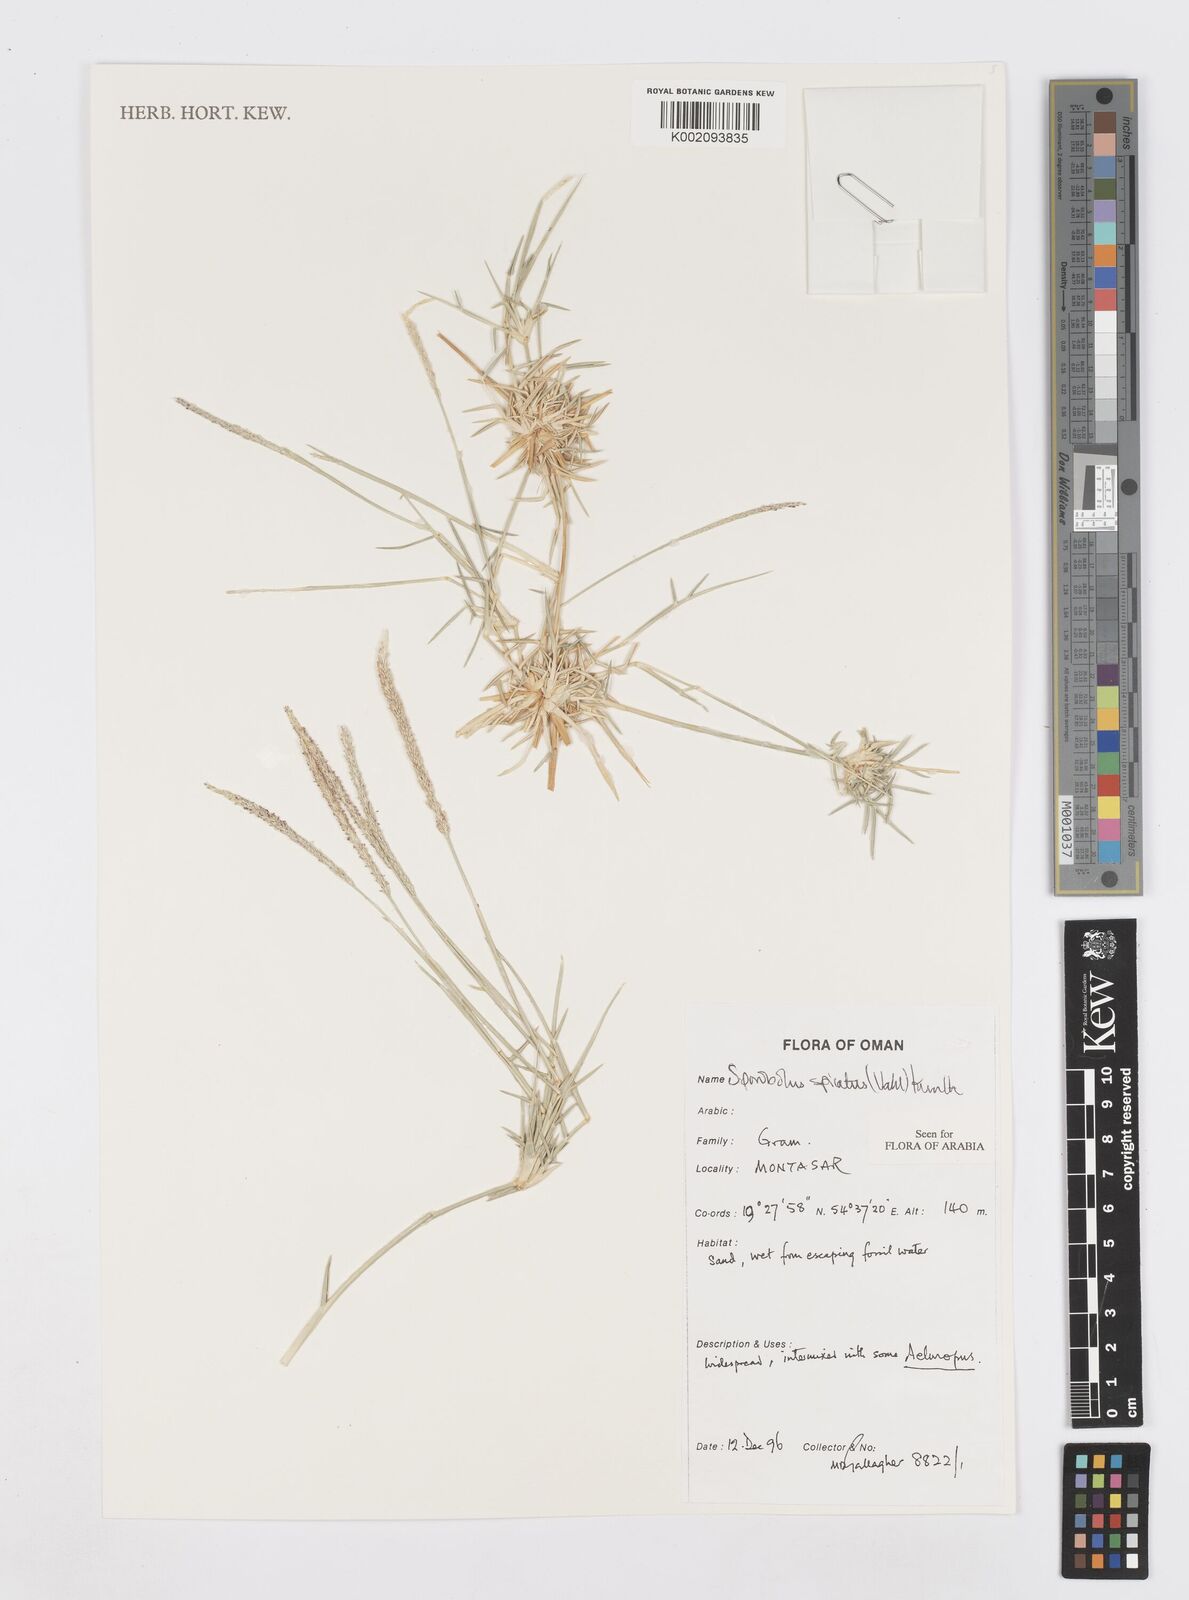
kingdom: Plantae
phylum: Tracheophyta
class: Liliopsida
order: Poales
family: Poaceae
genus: Sporobolus
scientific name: Sporobolus spicatus
